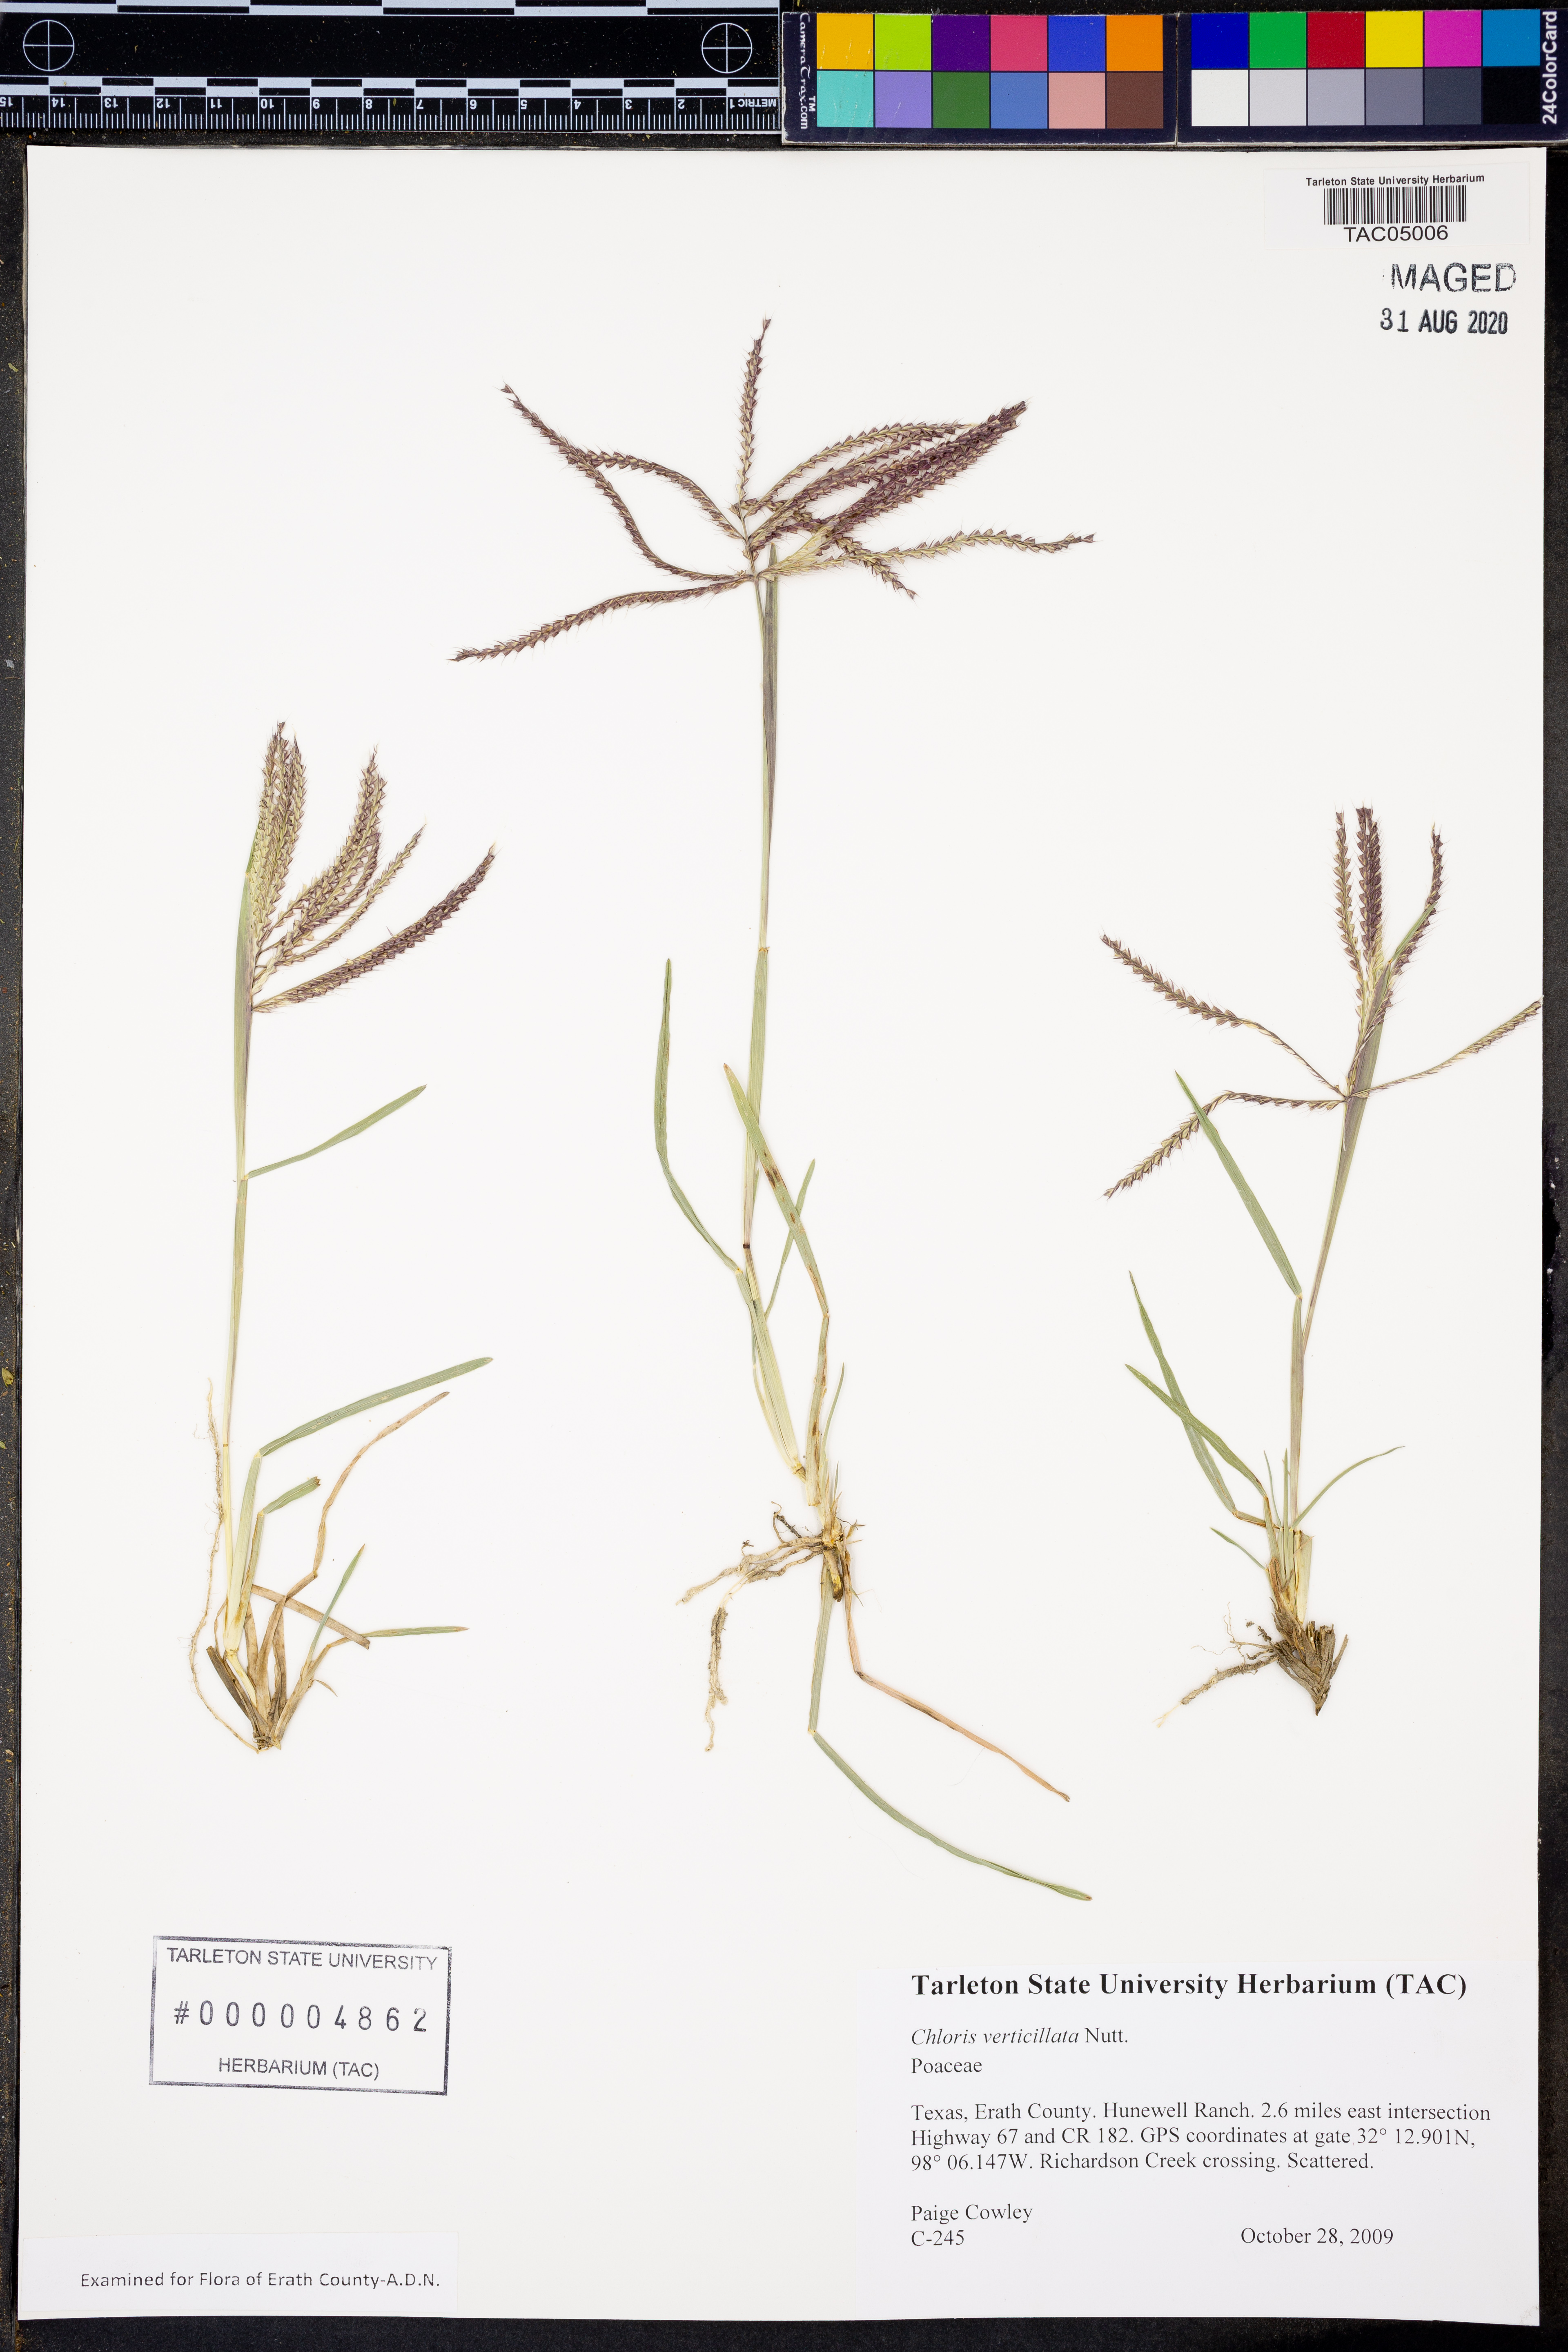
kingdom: Plantae
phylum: Tracheophyta
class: Liliopsida
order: Poales
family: Poaceae
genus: Chloris
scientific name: Chloris verticillata
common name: Tumble windmill grass
